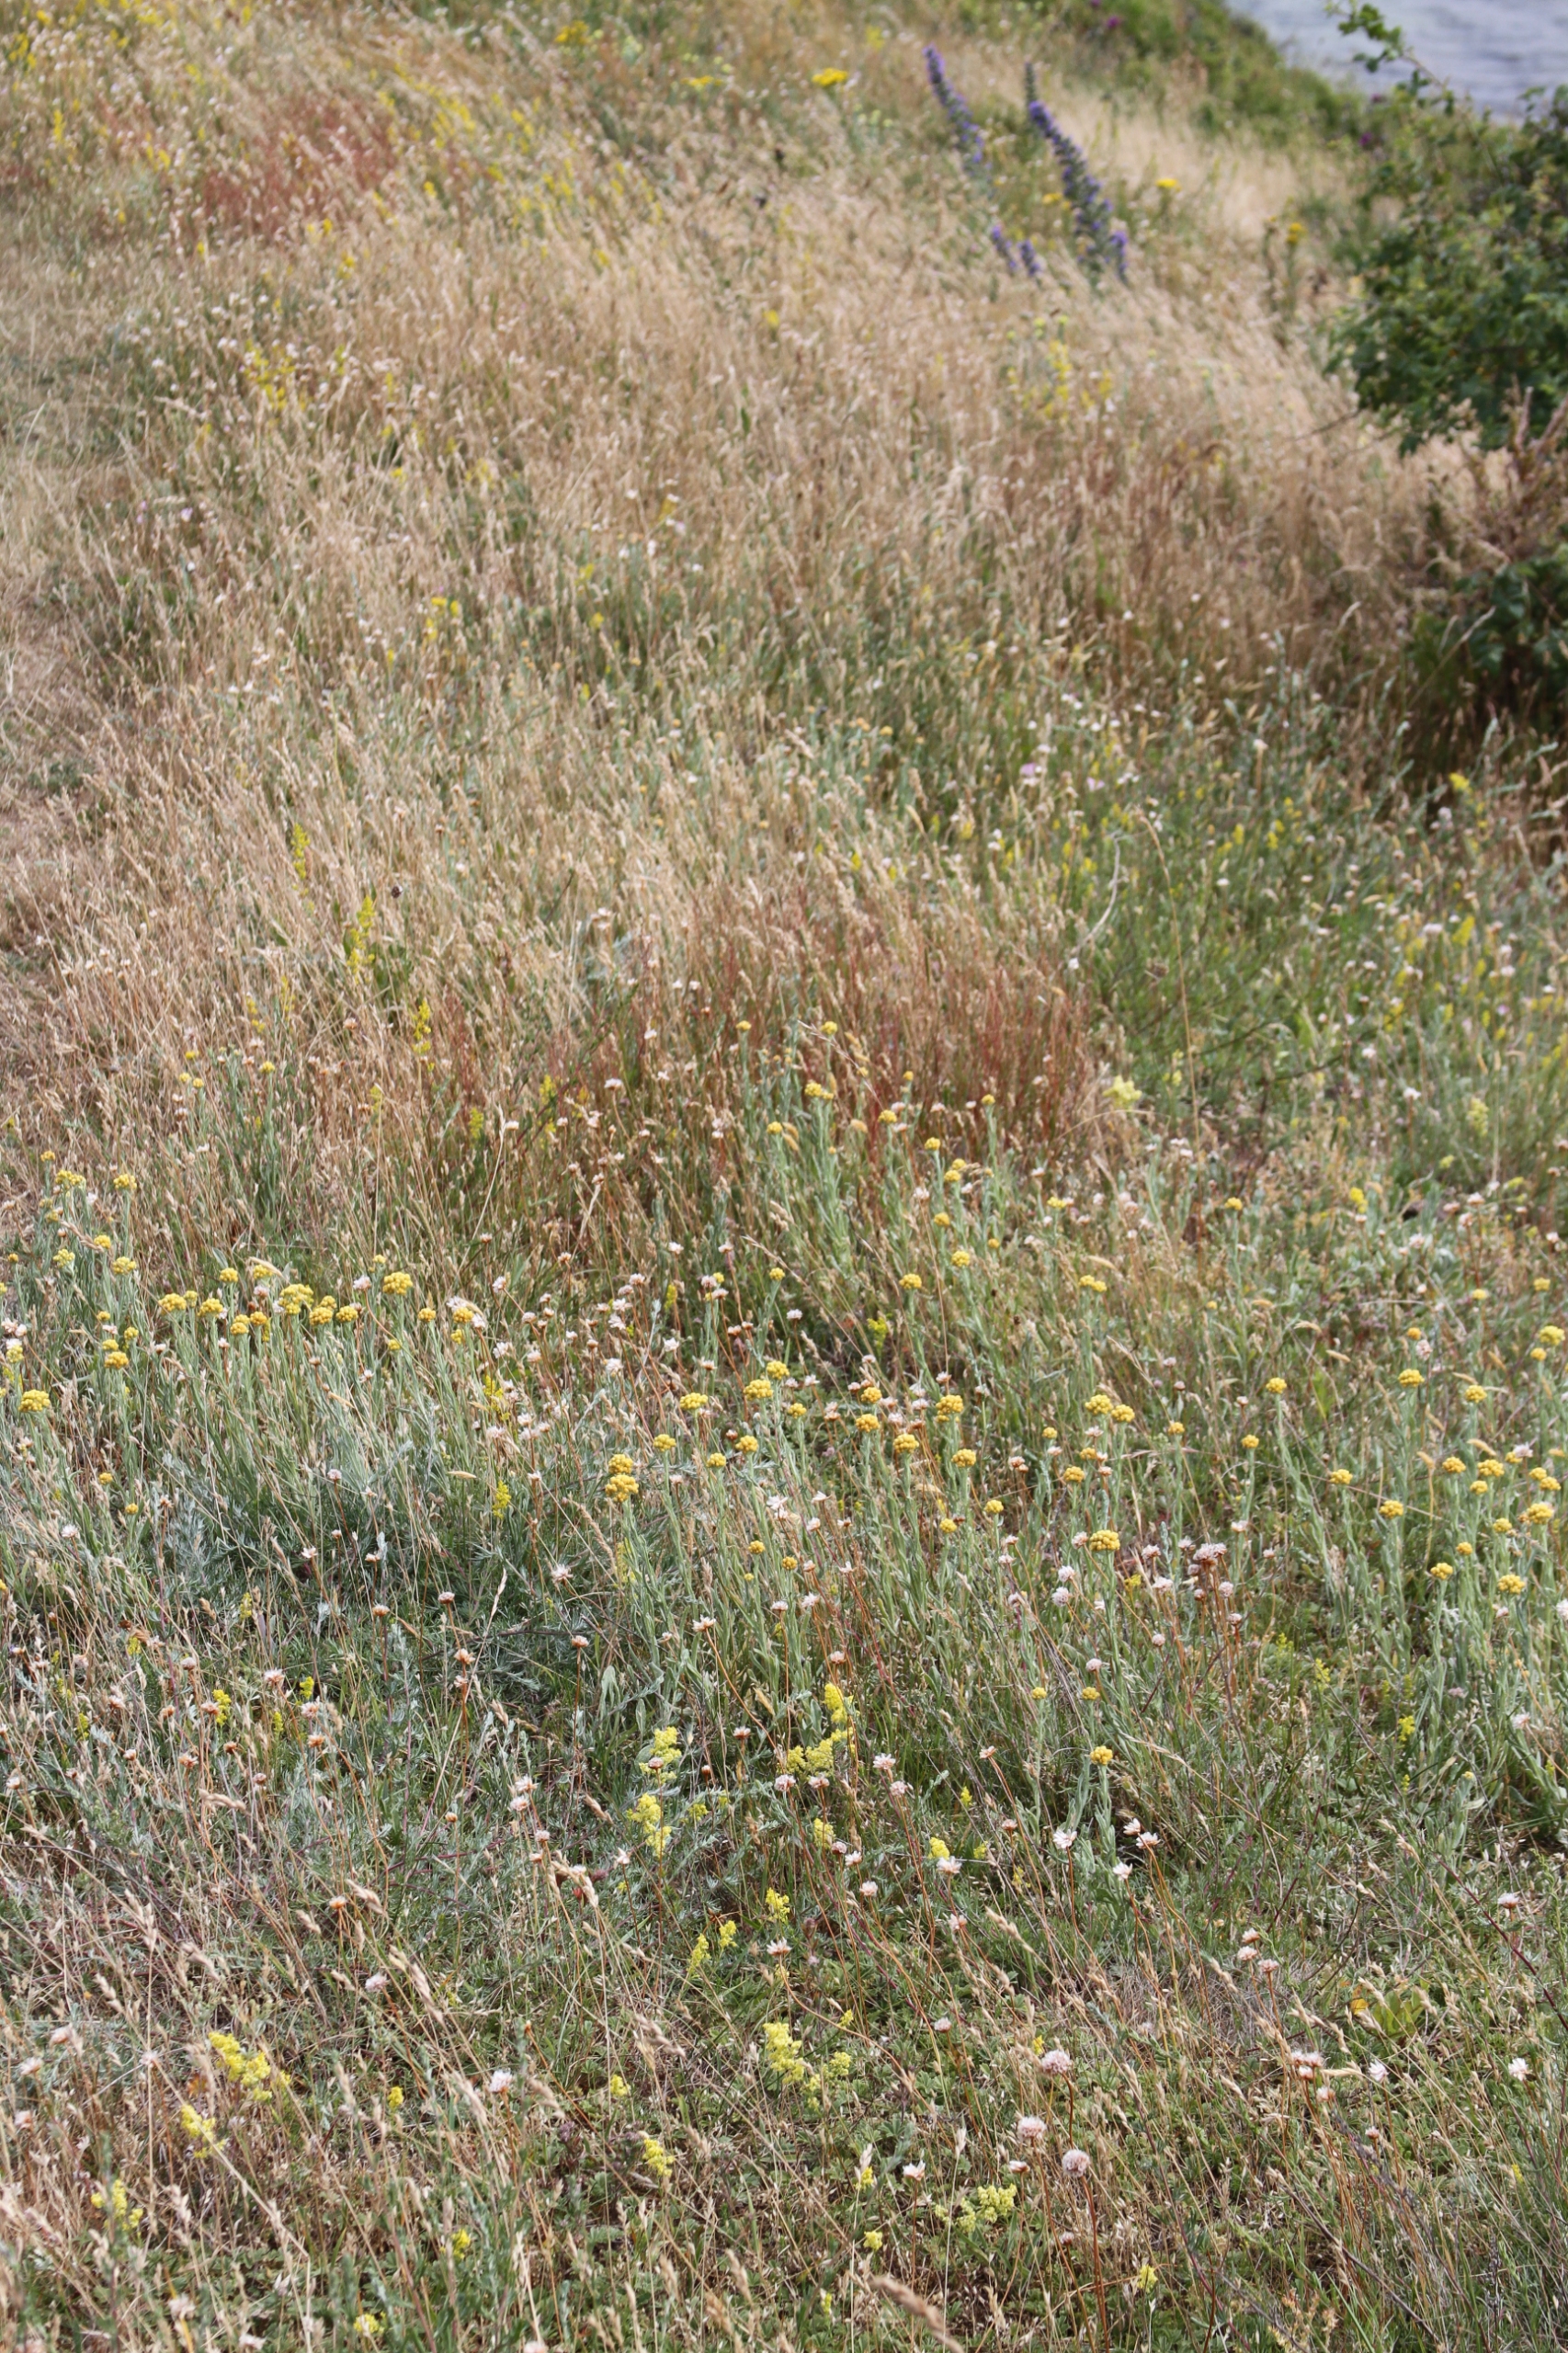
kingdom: Plantae
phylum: Tracheophyta
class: Magnoliopsida
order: Asterales
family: Asteraceae
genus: Helichrysum
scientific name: Helichrysum arenarium
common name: Gul evighedsblomst
